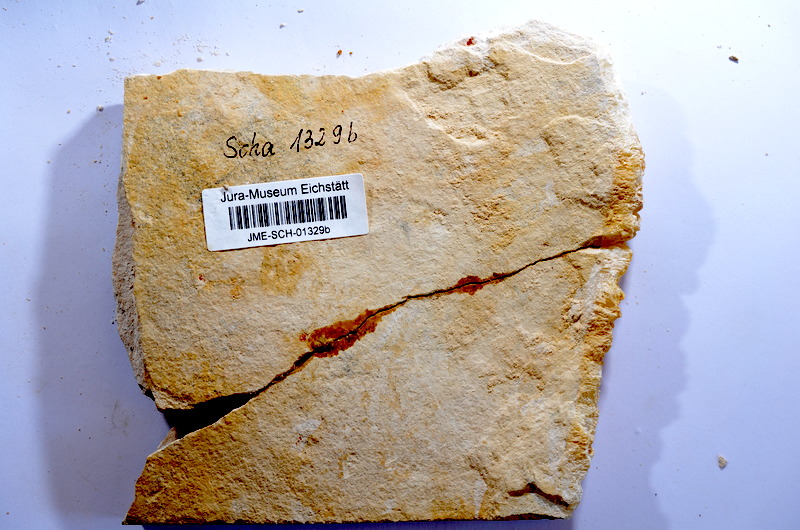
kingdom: Animalia
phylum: Chordata
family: Ascalaboidae
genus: Tharsis
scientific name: Tharsis dubius
